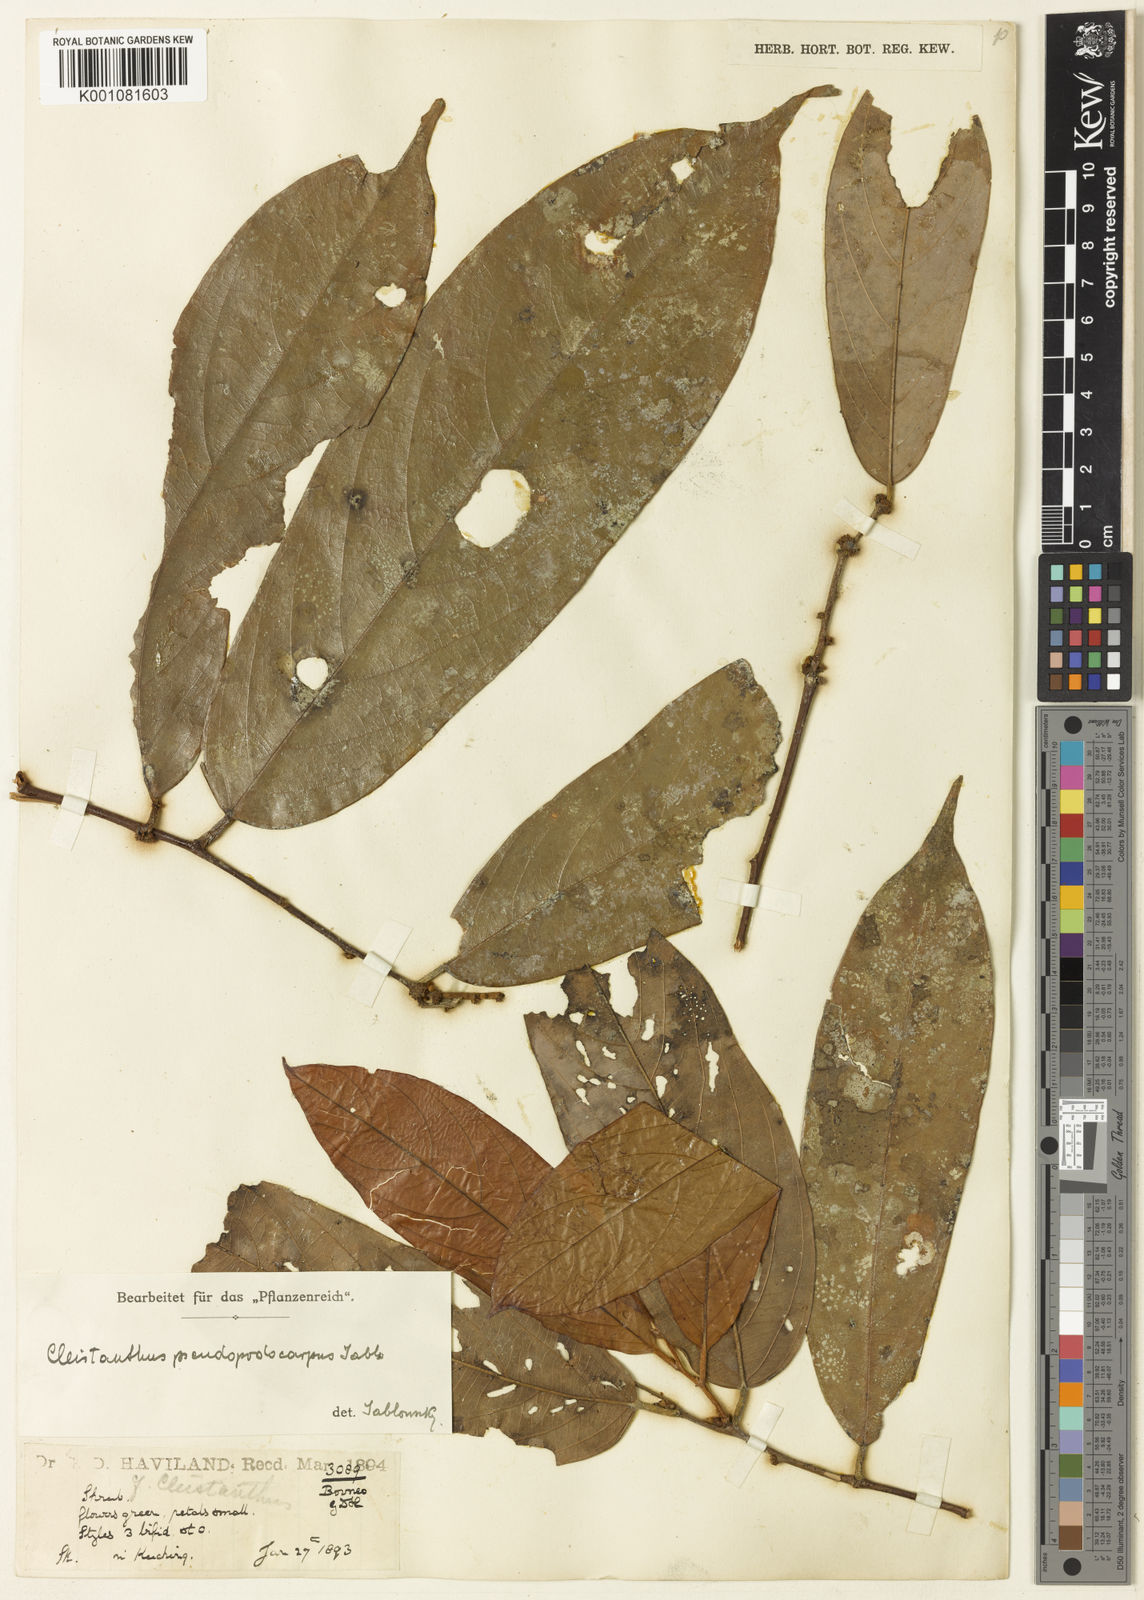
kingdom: Plantae
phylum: Tracheophyta
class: Magnoliopsida
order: Malpighiales
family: Phyllanthaceae
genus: Cleistanthus
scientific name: Cleistanthus pseudopodocarpus
